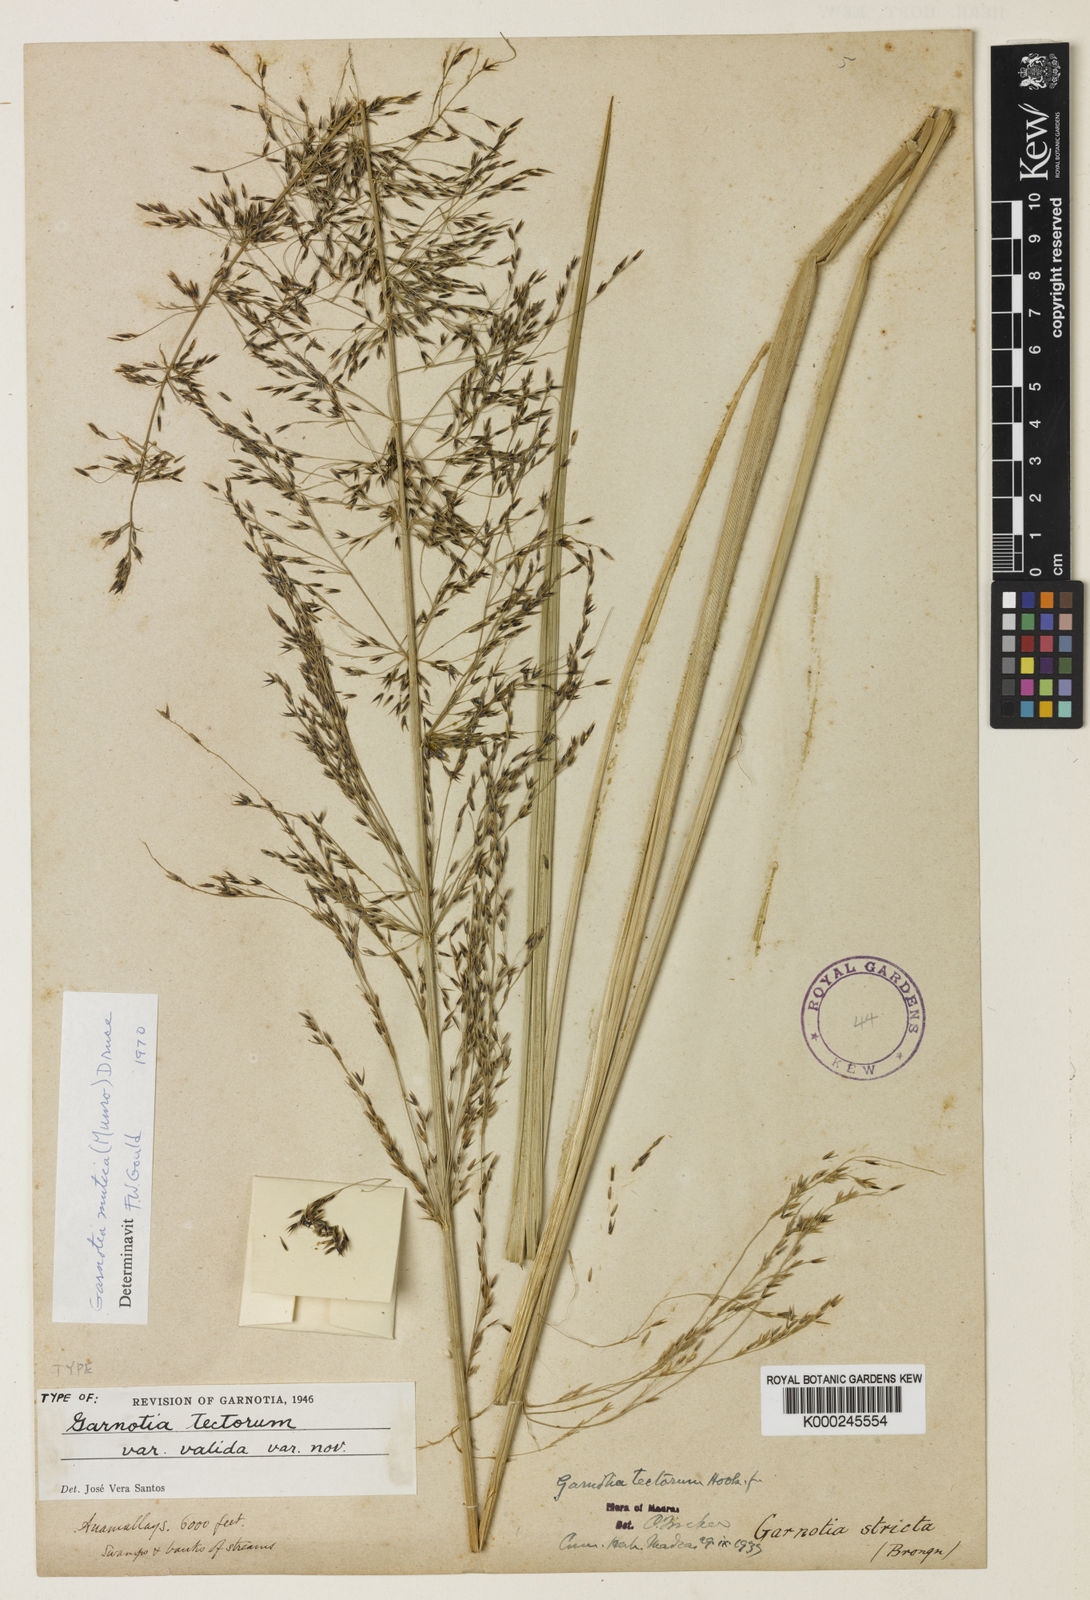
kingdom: Plantae
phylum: Tracheophyta
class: Liliopsida
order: Poales
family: Poaceae
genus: Garnotia
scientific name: Garnotia exaristata
